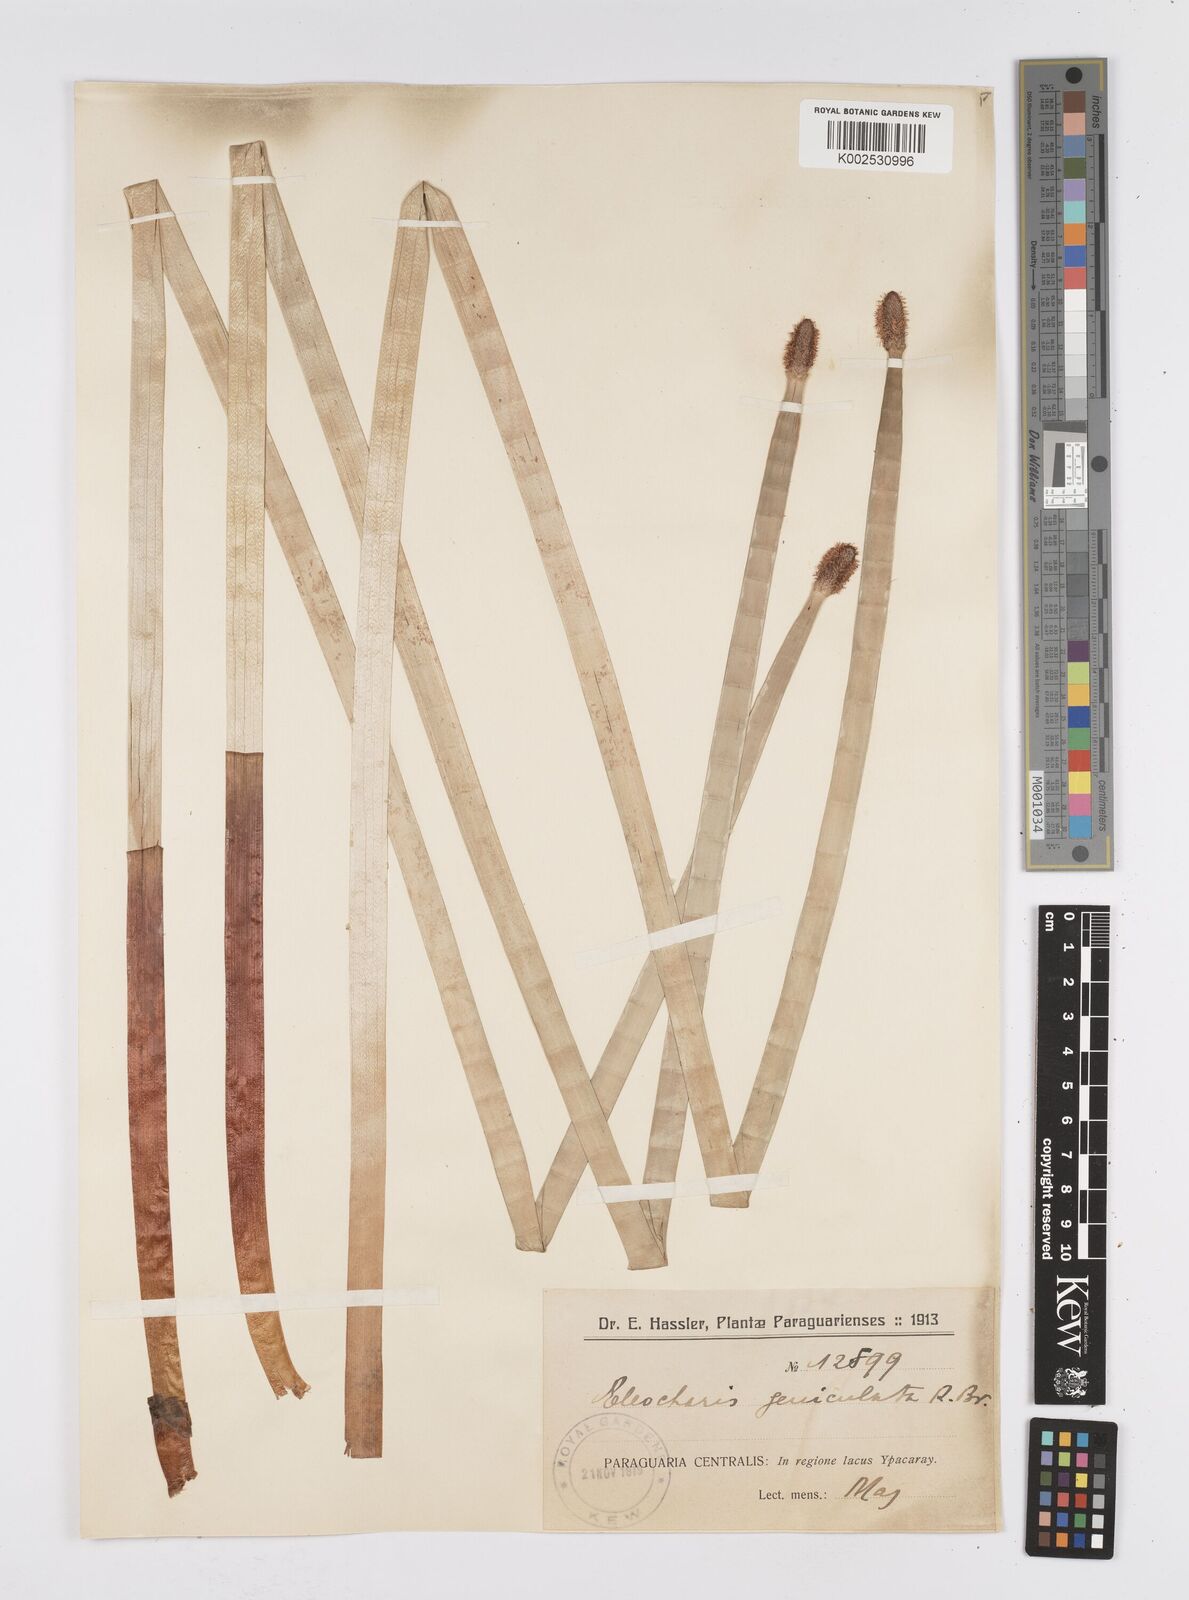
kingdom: Plantae
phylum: Tracheophyta
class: Liliopsida
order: Poales
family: Cyperaceae
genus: Eleocharis
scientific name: Eleocharis elegans
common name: Elegant spike-rush
